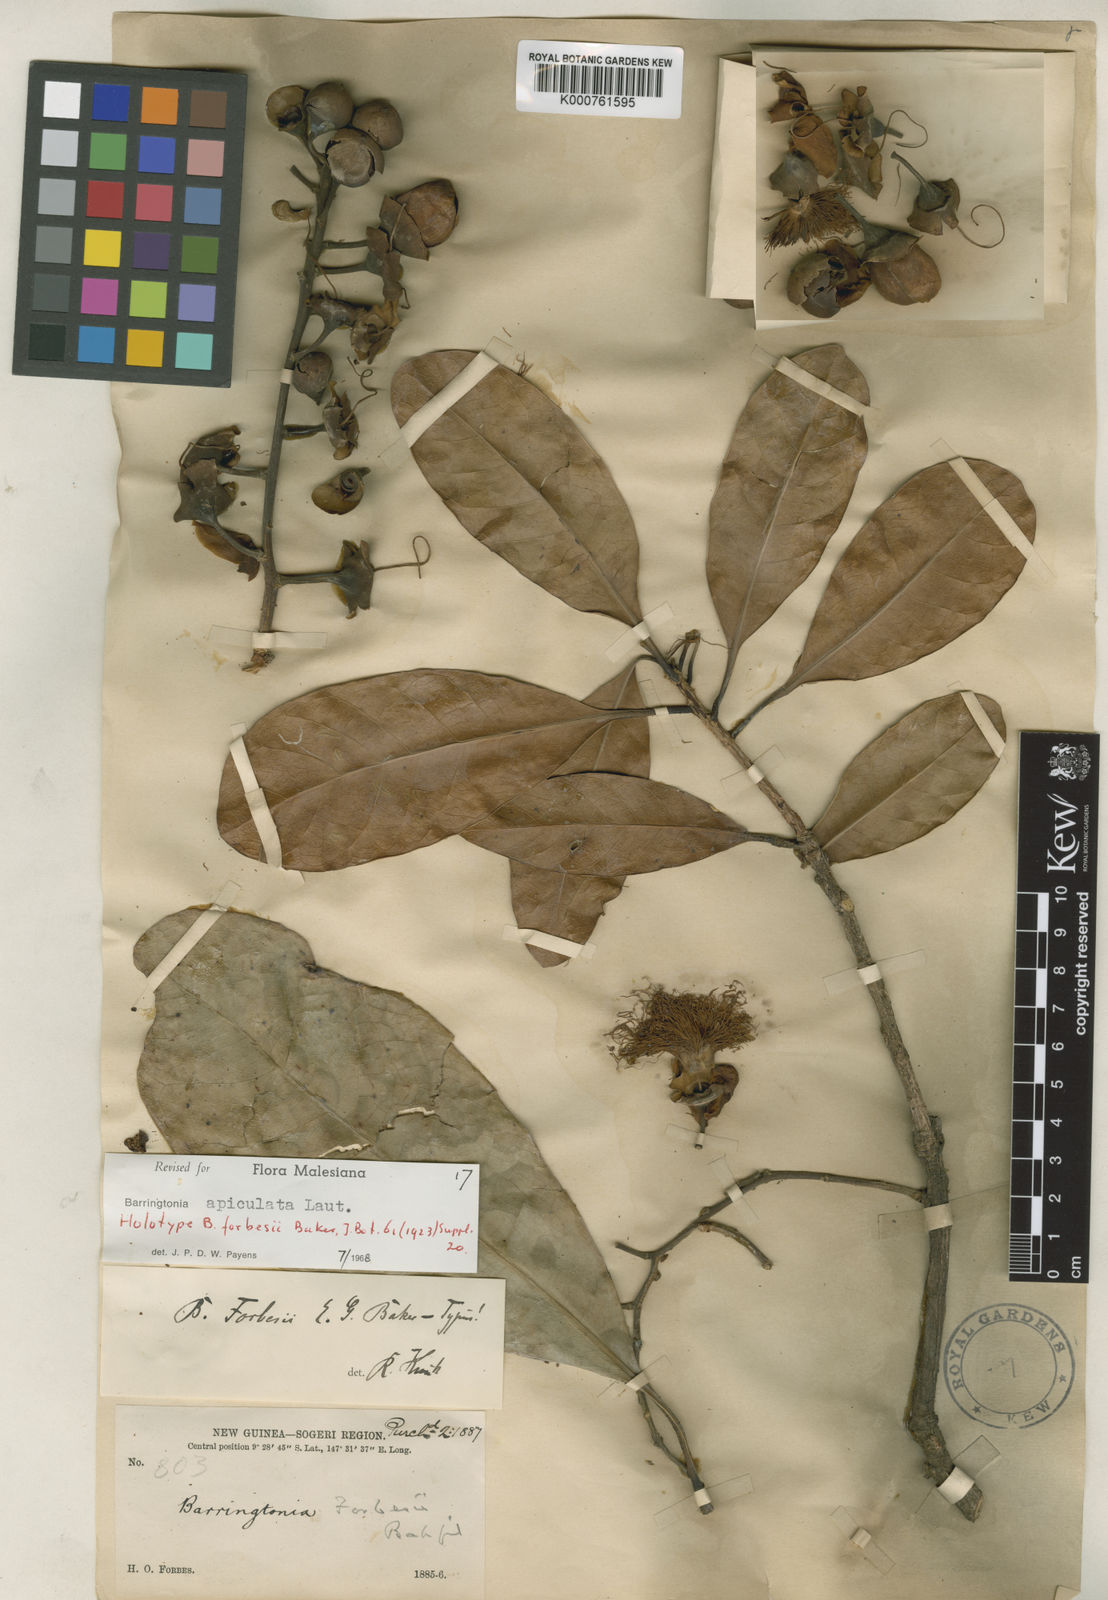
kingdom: Plantae
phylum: Tracheophyta
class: Magnoliopsida
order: Ericales
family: Lecythidaceae
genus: Barringtonia
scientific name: Barringtonia apiculata
